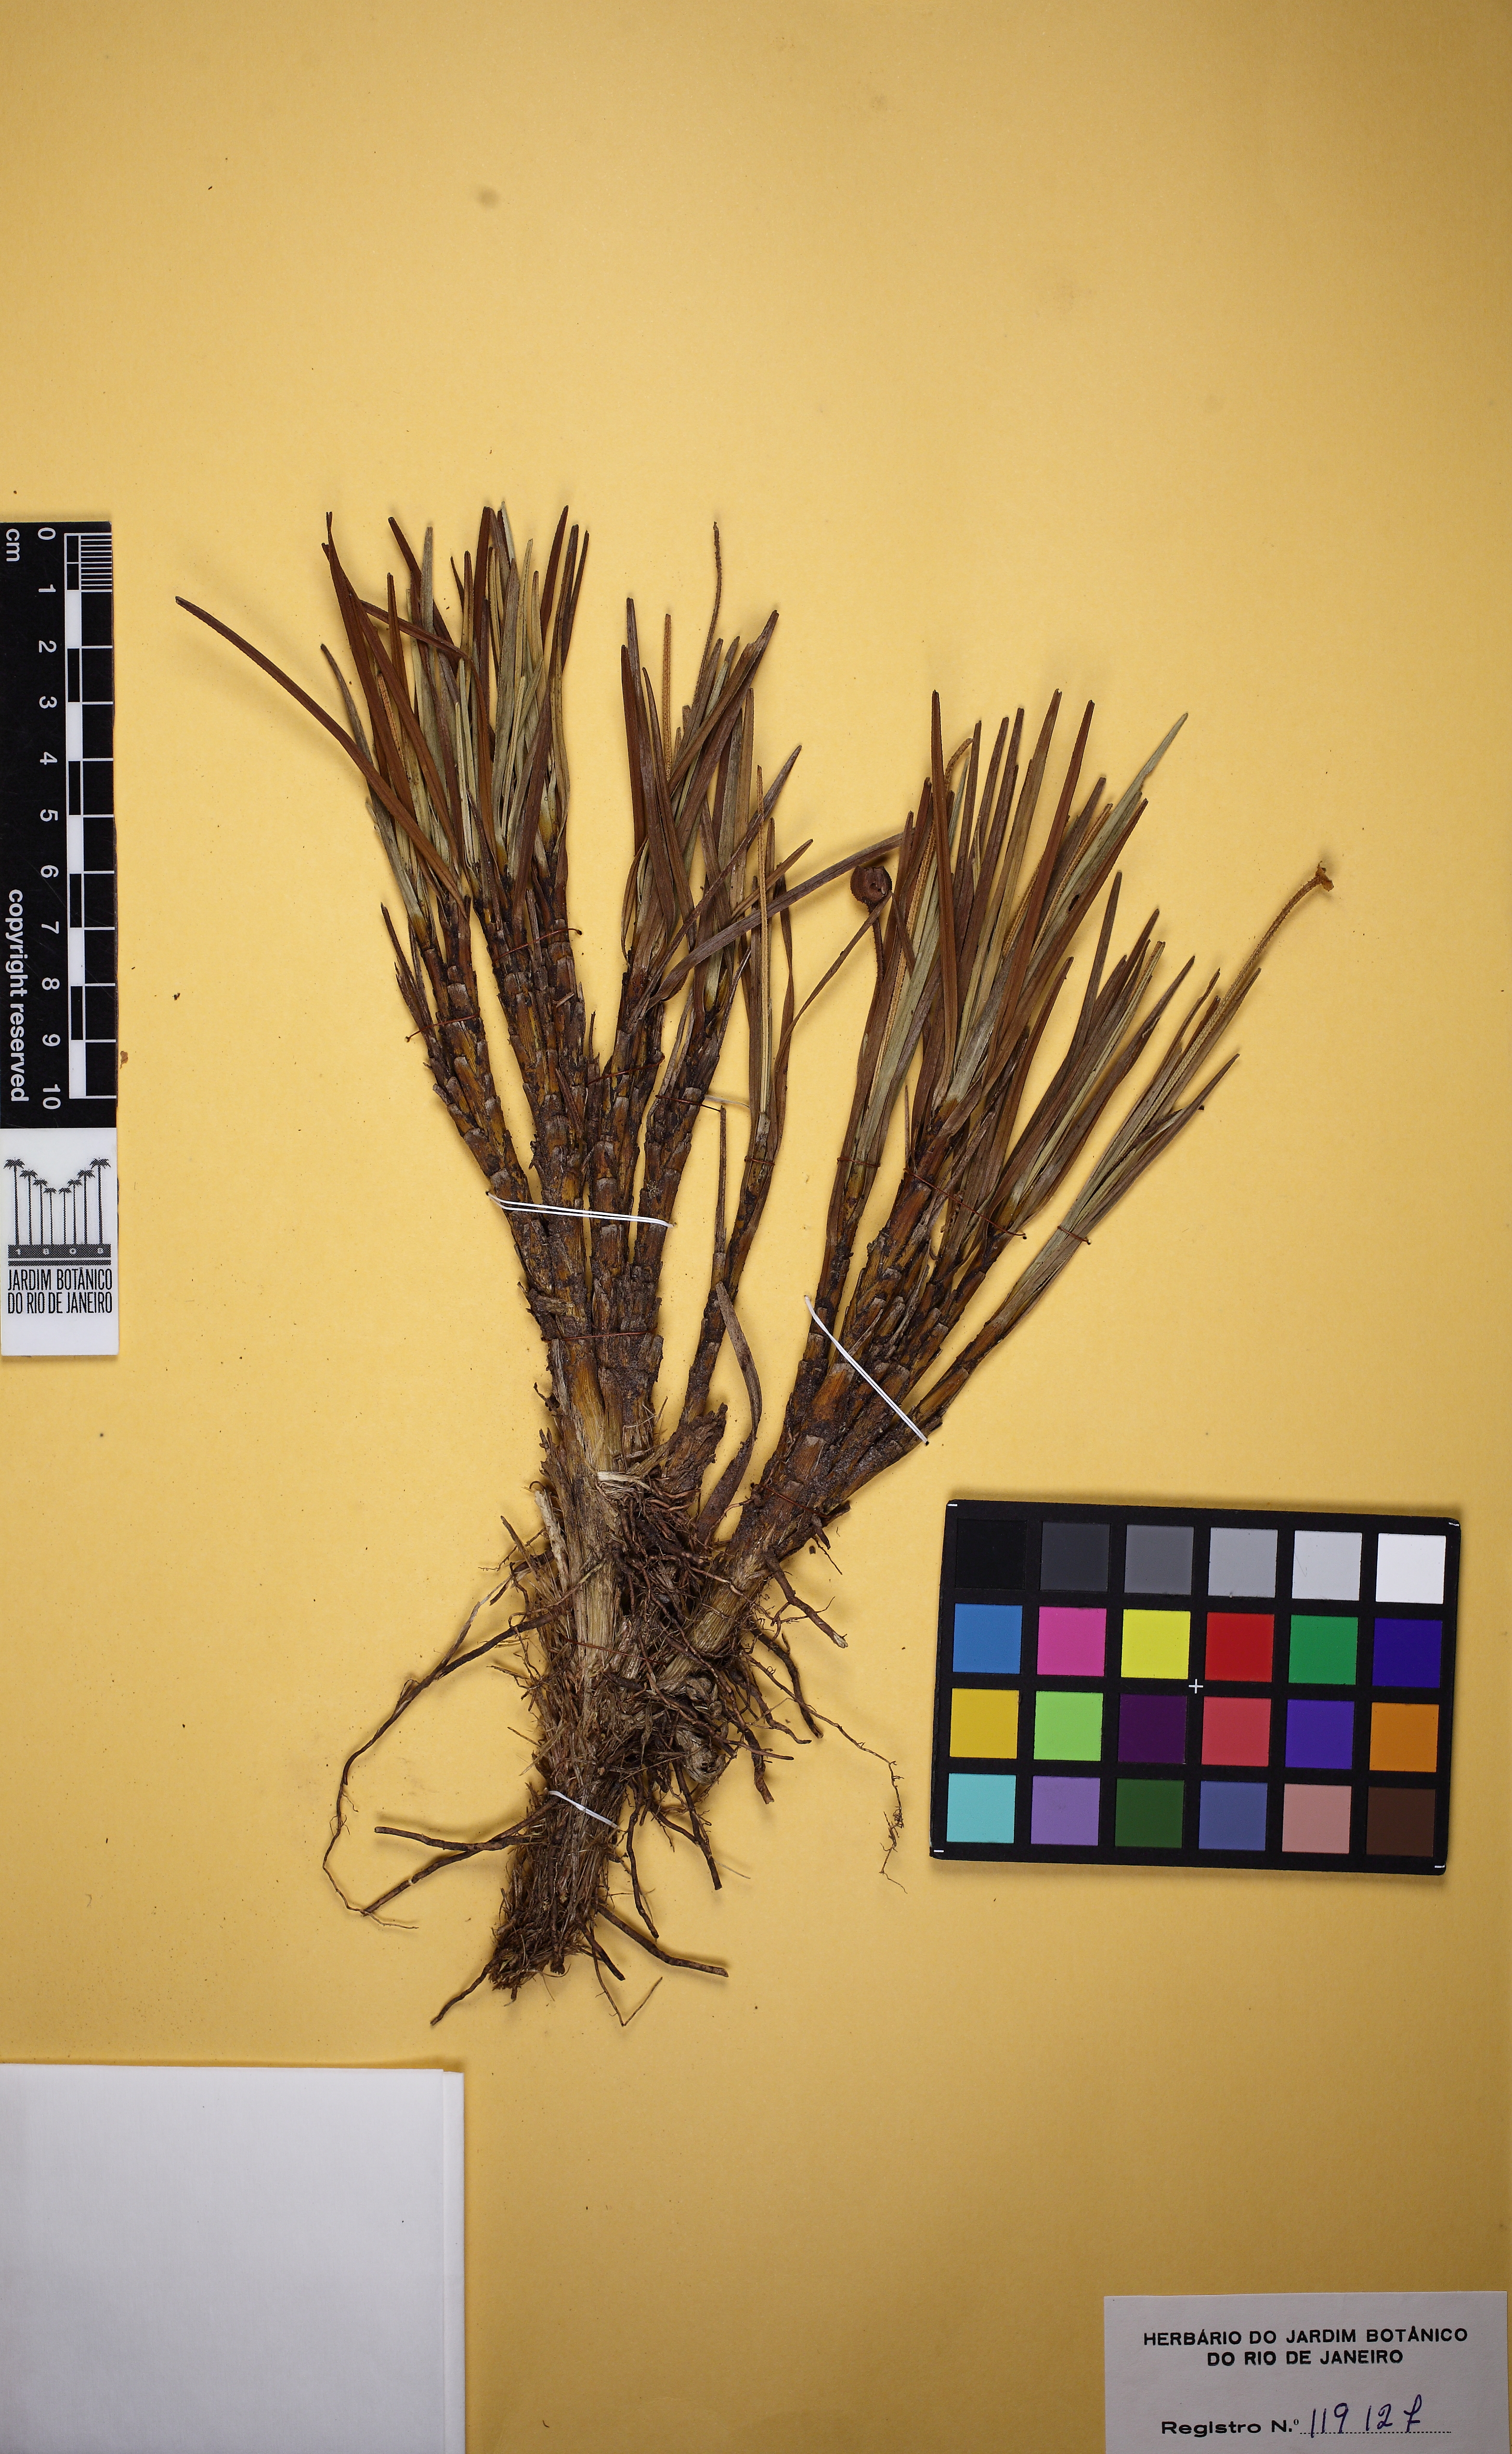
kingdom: Plantae
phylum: Tracheophyta
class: Liliopsida
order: Pandanales
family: Velloziaceae
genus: Vellozia
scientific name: Vellozia epidendroides
